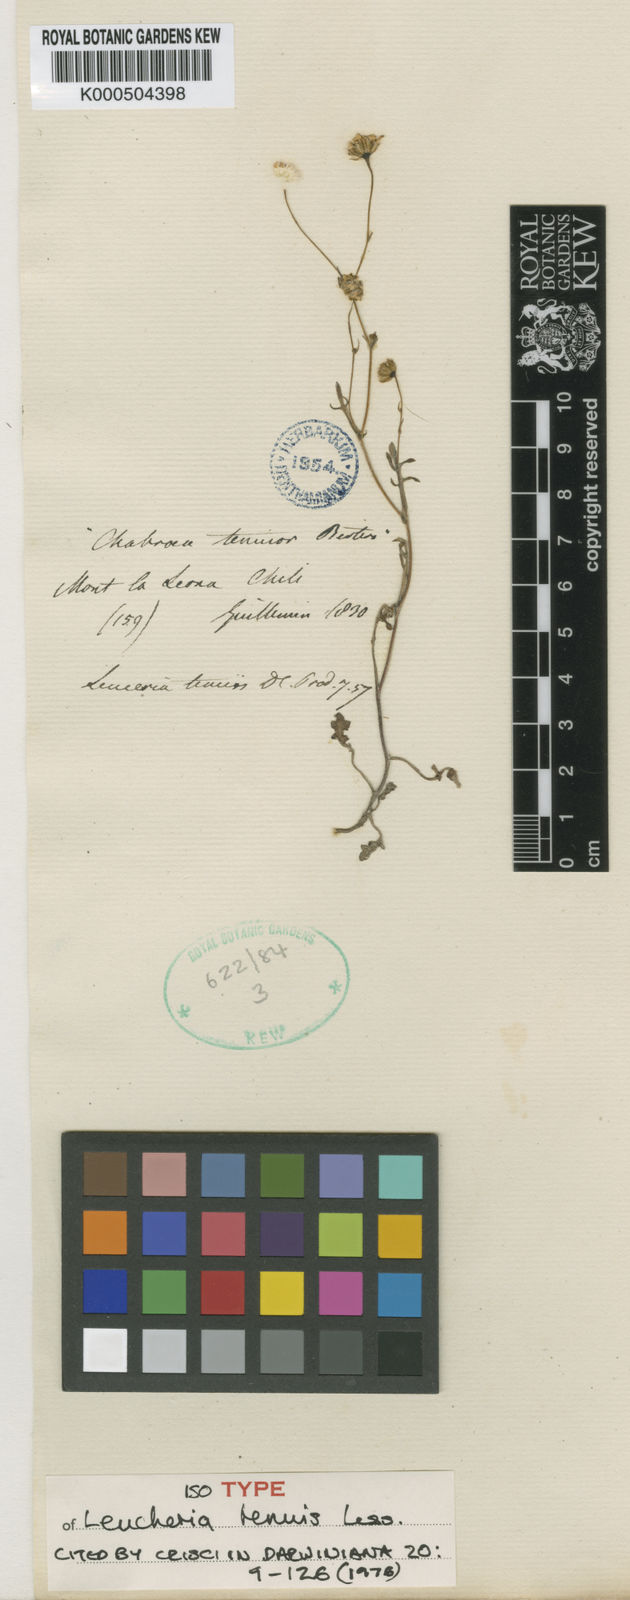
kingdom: Plantae
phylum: Tracheophyta
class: Magnoliopsida
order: Asterales
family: Asteraceae
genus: Leucheria
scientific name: Leucheria tenuis
